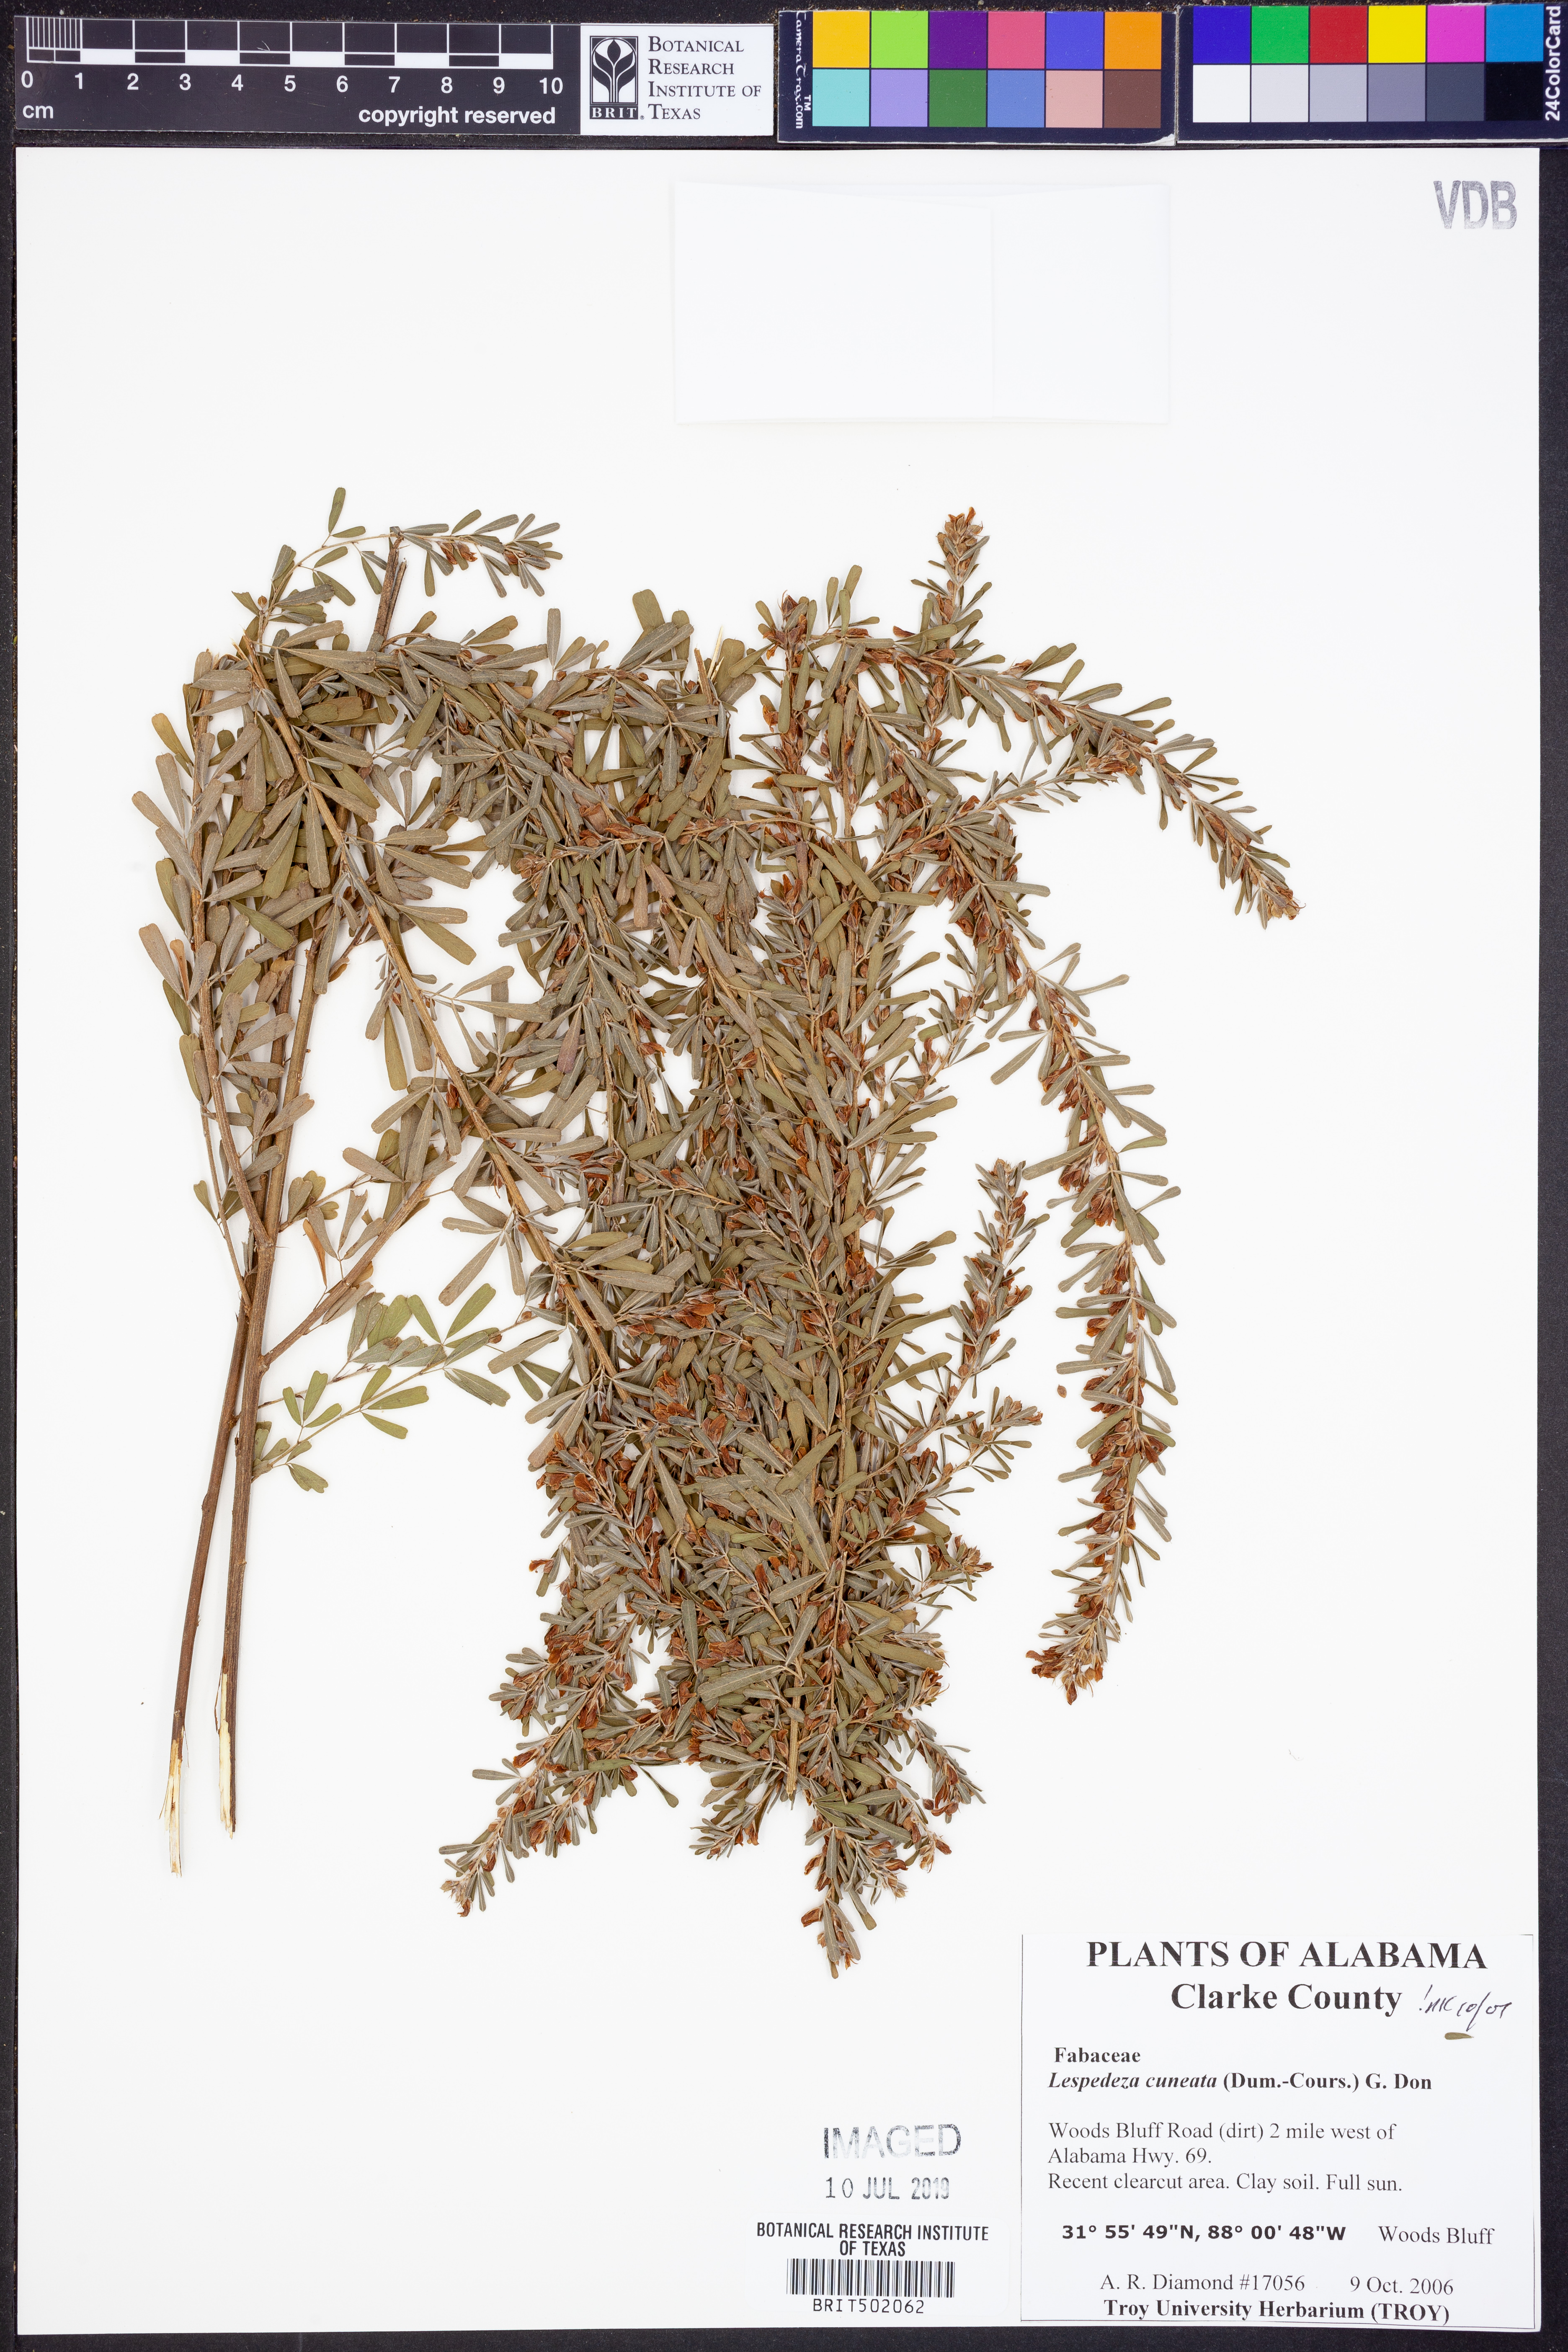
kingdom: Plantae
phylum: Tracheophyta
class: Magnoliopsida
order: Fabales
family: Fabaceae
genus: Lespedeza
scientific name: Lespedeza cuneata
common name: Chinese bush-clover
